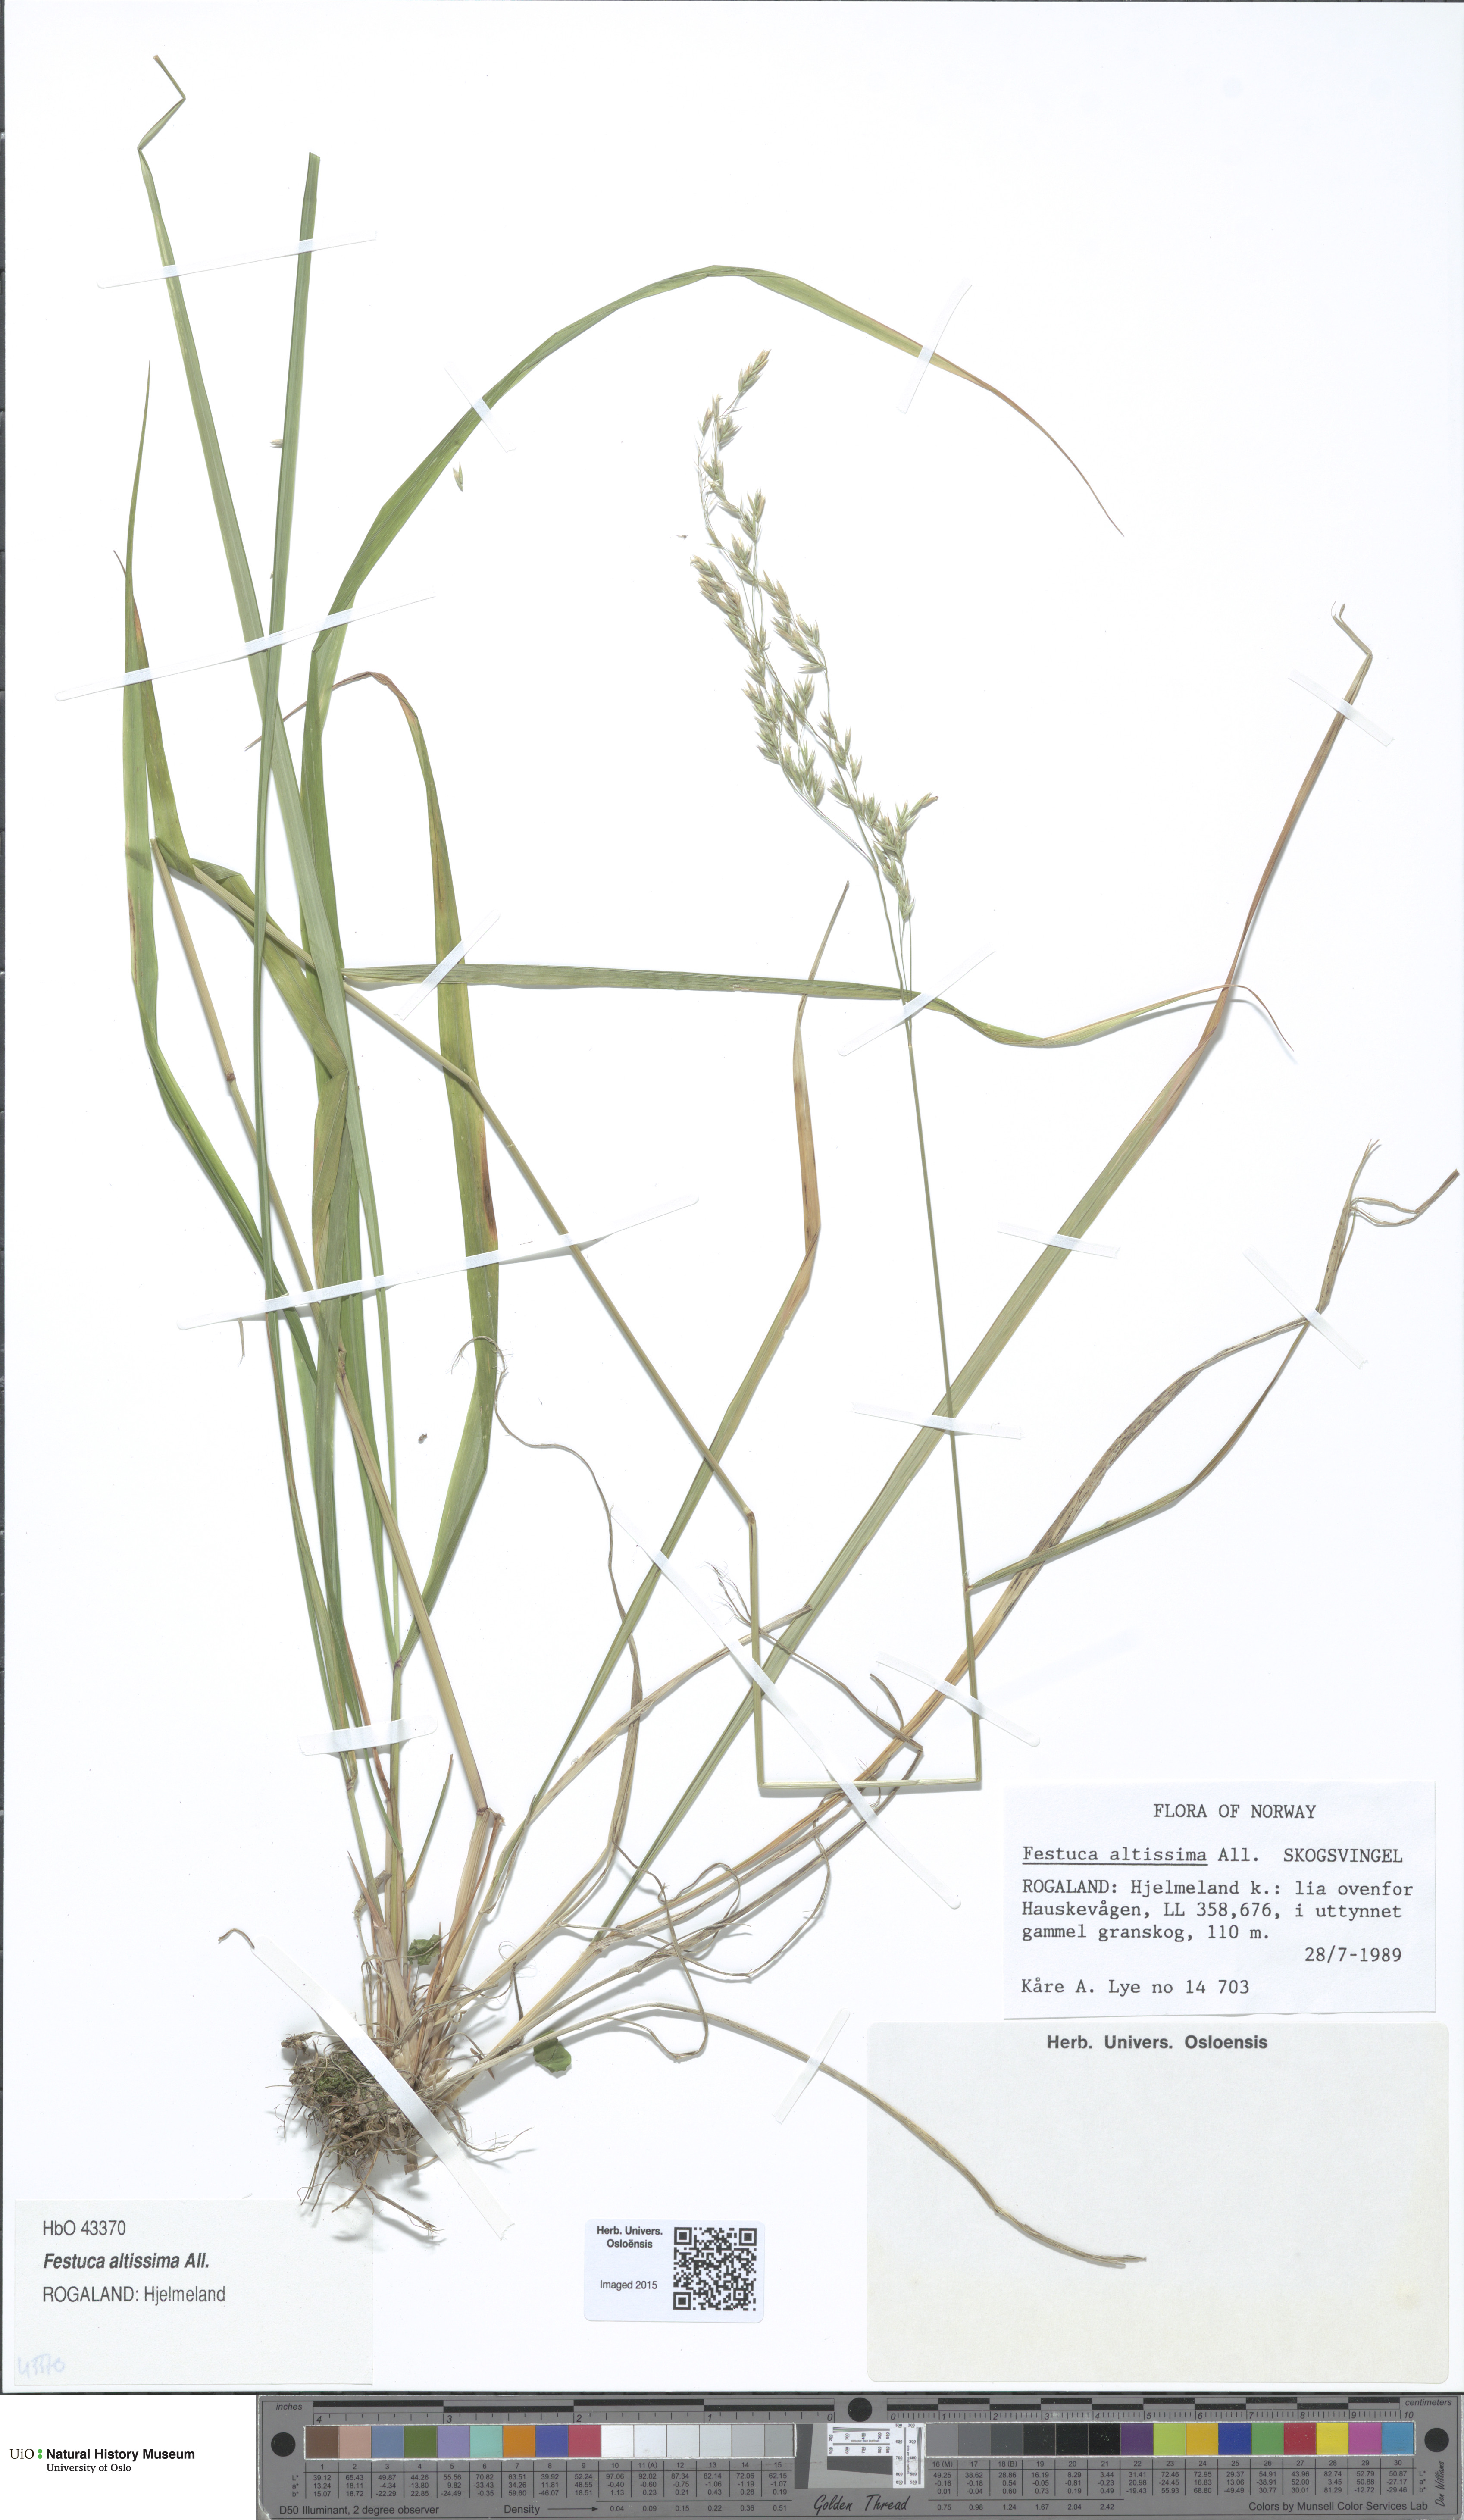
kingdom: Plantae
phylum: Tracheophyta
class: Liliopsida
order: Poales
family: Poaceae
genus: Festuca
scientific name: Festuca altissima
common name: Wood fescue
